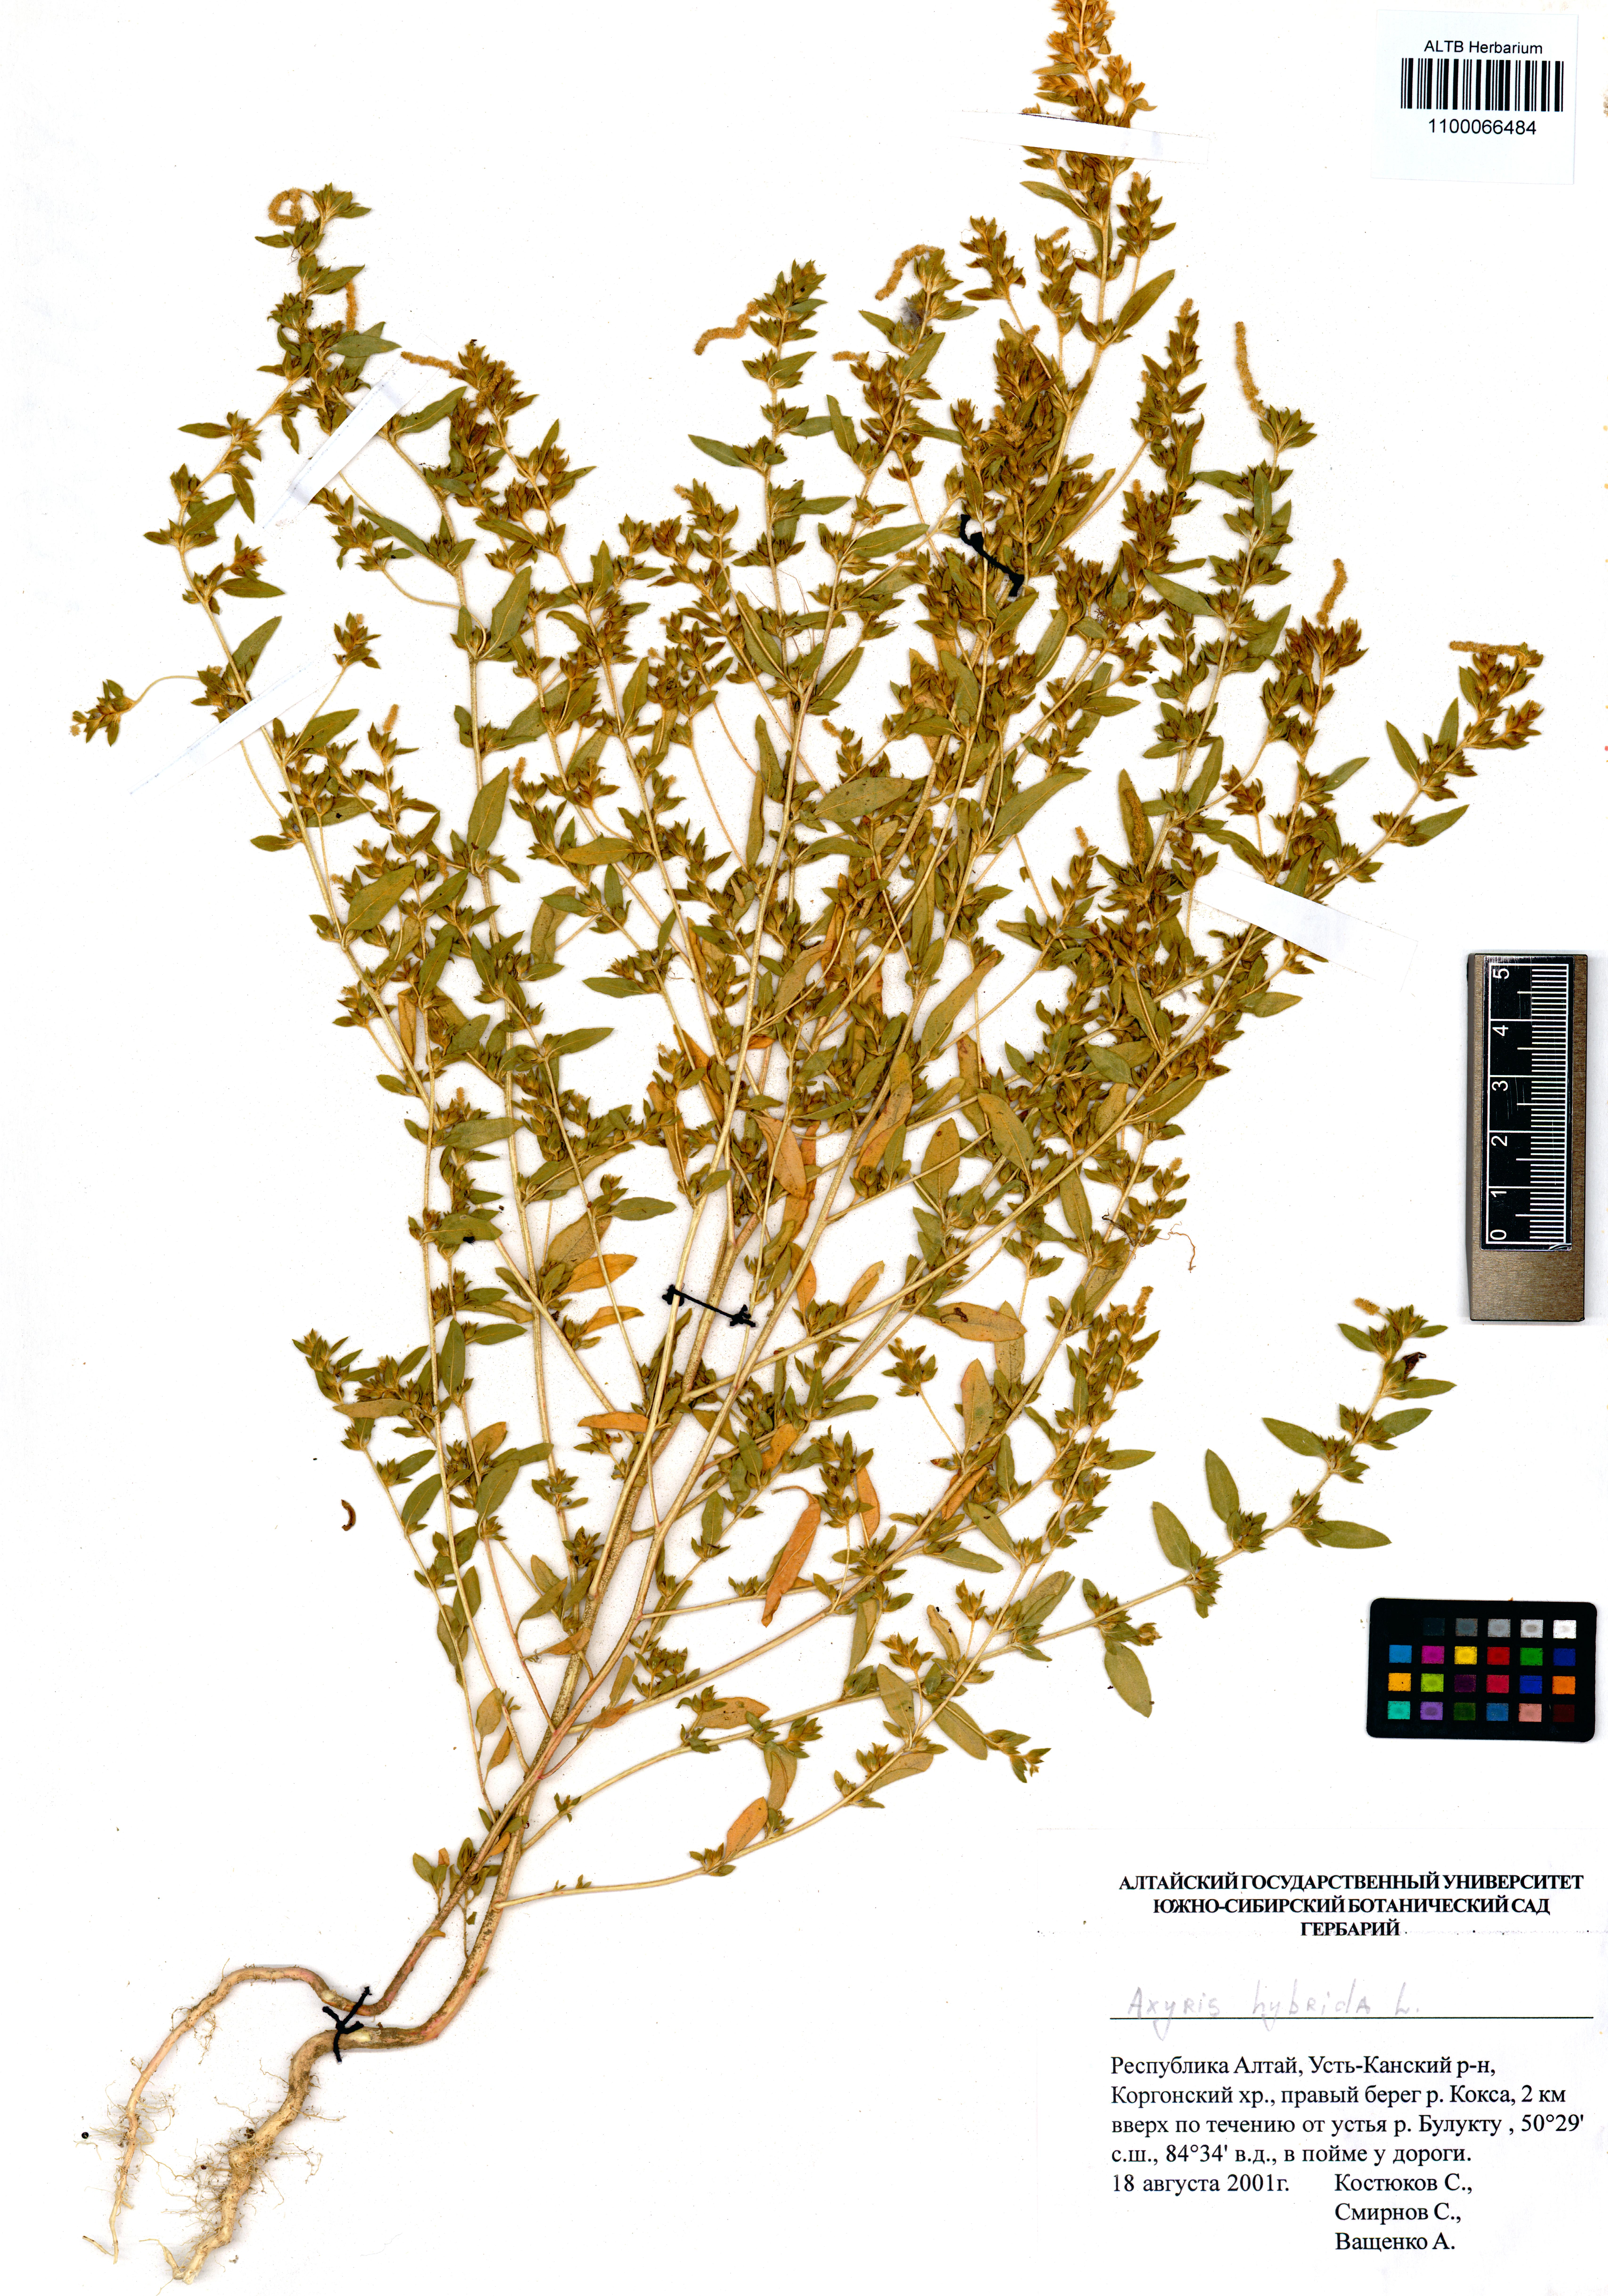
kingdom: Plantae
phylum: Tracheophyta
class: Magnoliopsida
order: Caryophyllales
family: Amaranthaceae
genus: Axyris
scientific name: Axyris hybrida
